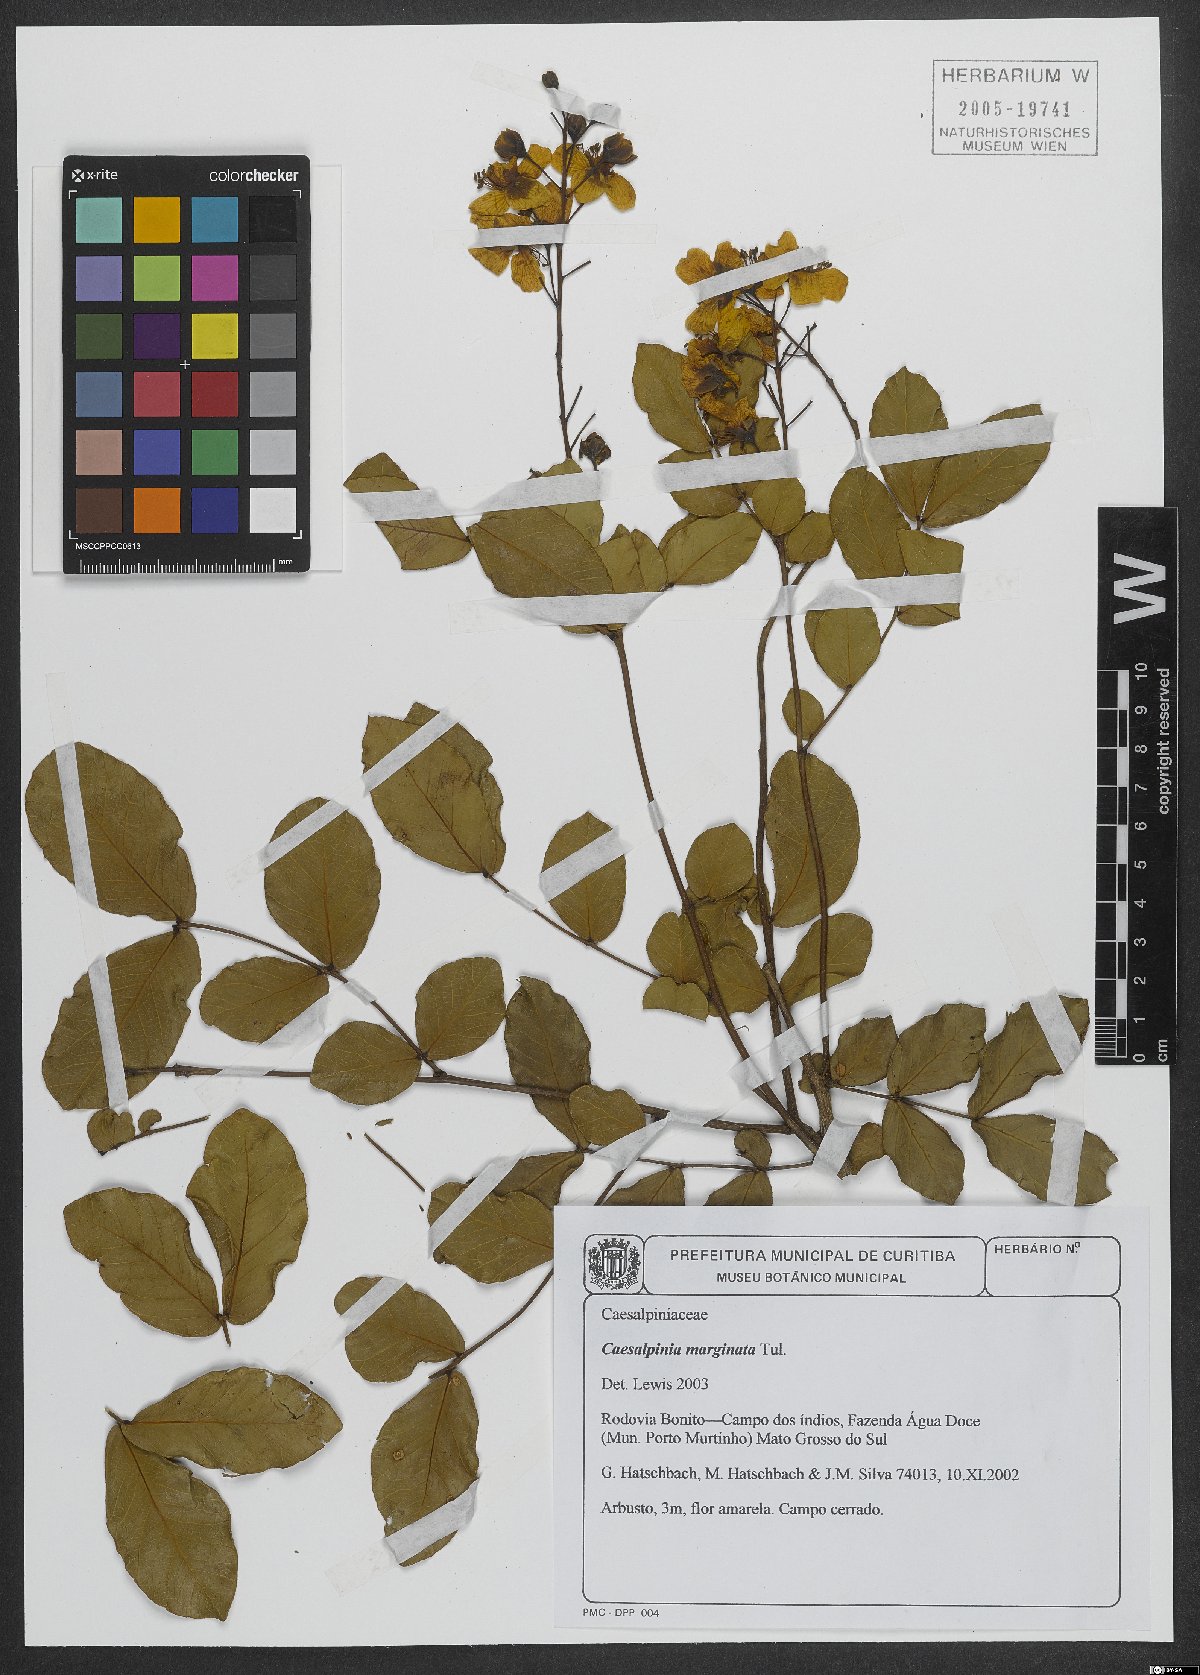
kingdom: Plantae
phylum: Tracheophyta
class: Magnoliopsida
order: Fabales
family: Fabaceae
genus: Cenostigma
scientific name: Cenostigma marginatum
